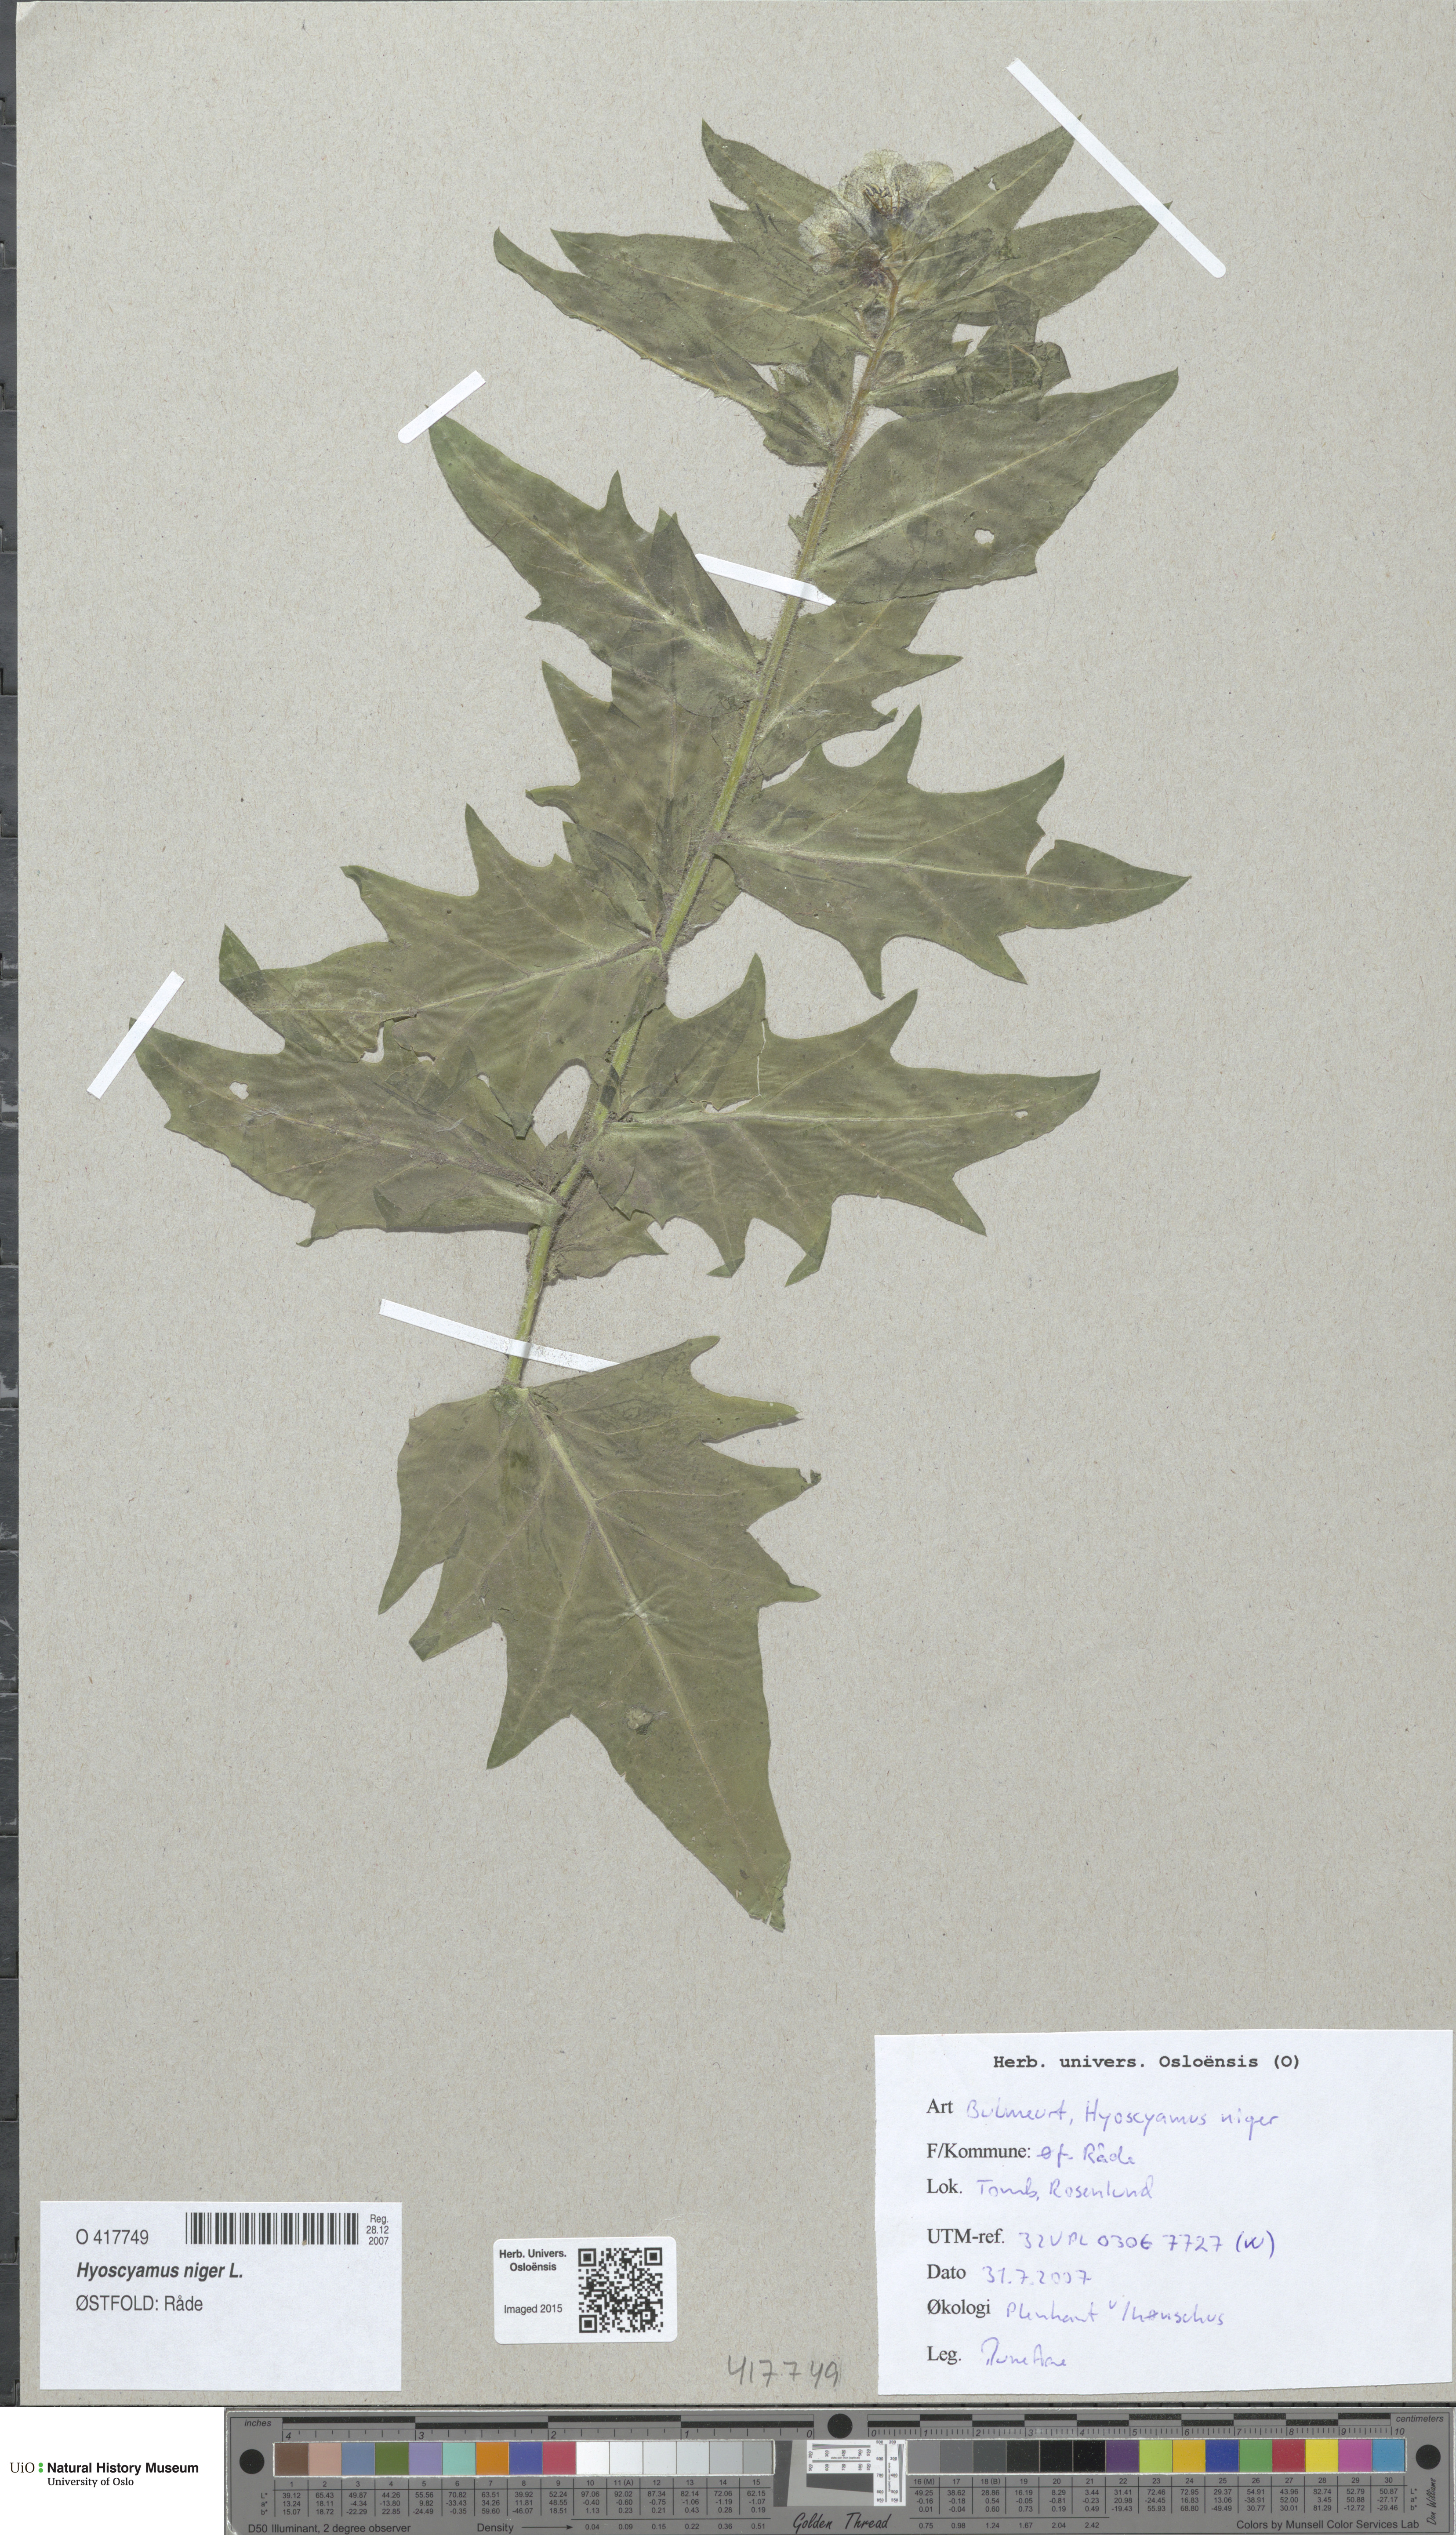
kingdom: Plantae
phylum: Tracheophyta
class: Magnoliopsida
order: Solanales
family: Solanaceae
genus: Hyoscyamus
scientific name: Hyoscyamus niger
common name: Henbane
